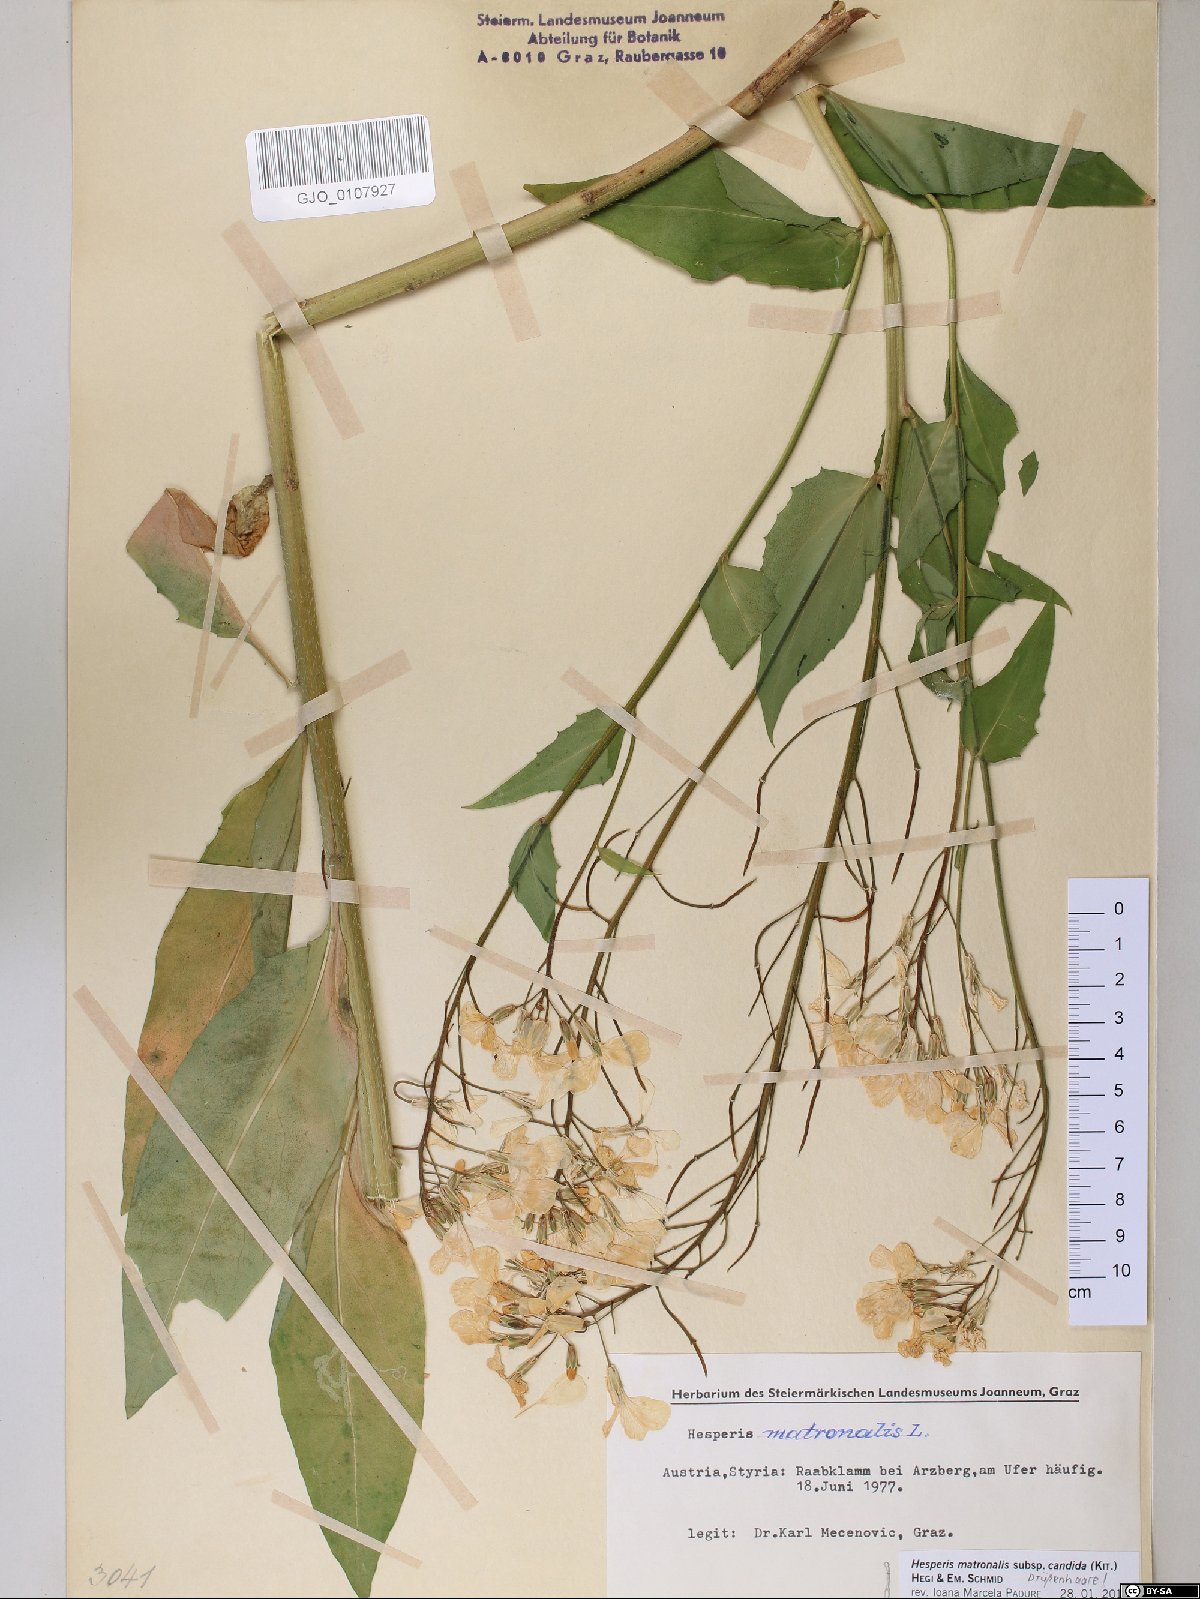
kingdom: Plantae
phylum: Tracheophyta
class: Magnoliopsida
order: Brassicales
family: Brassicaceae
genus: Hesperis
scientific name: Hesperis matronalis
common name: Dame's-violet
